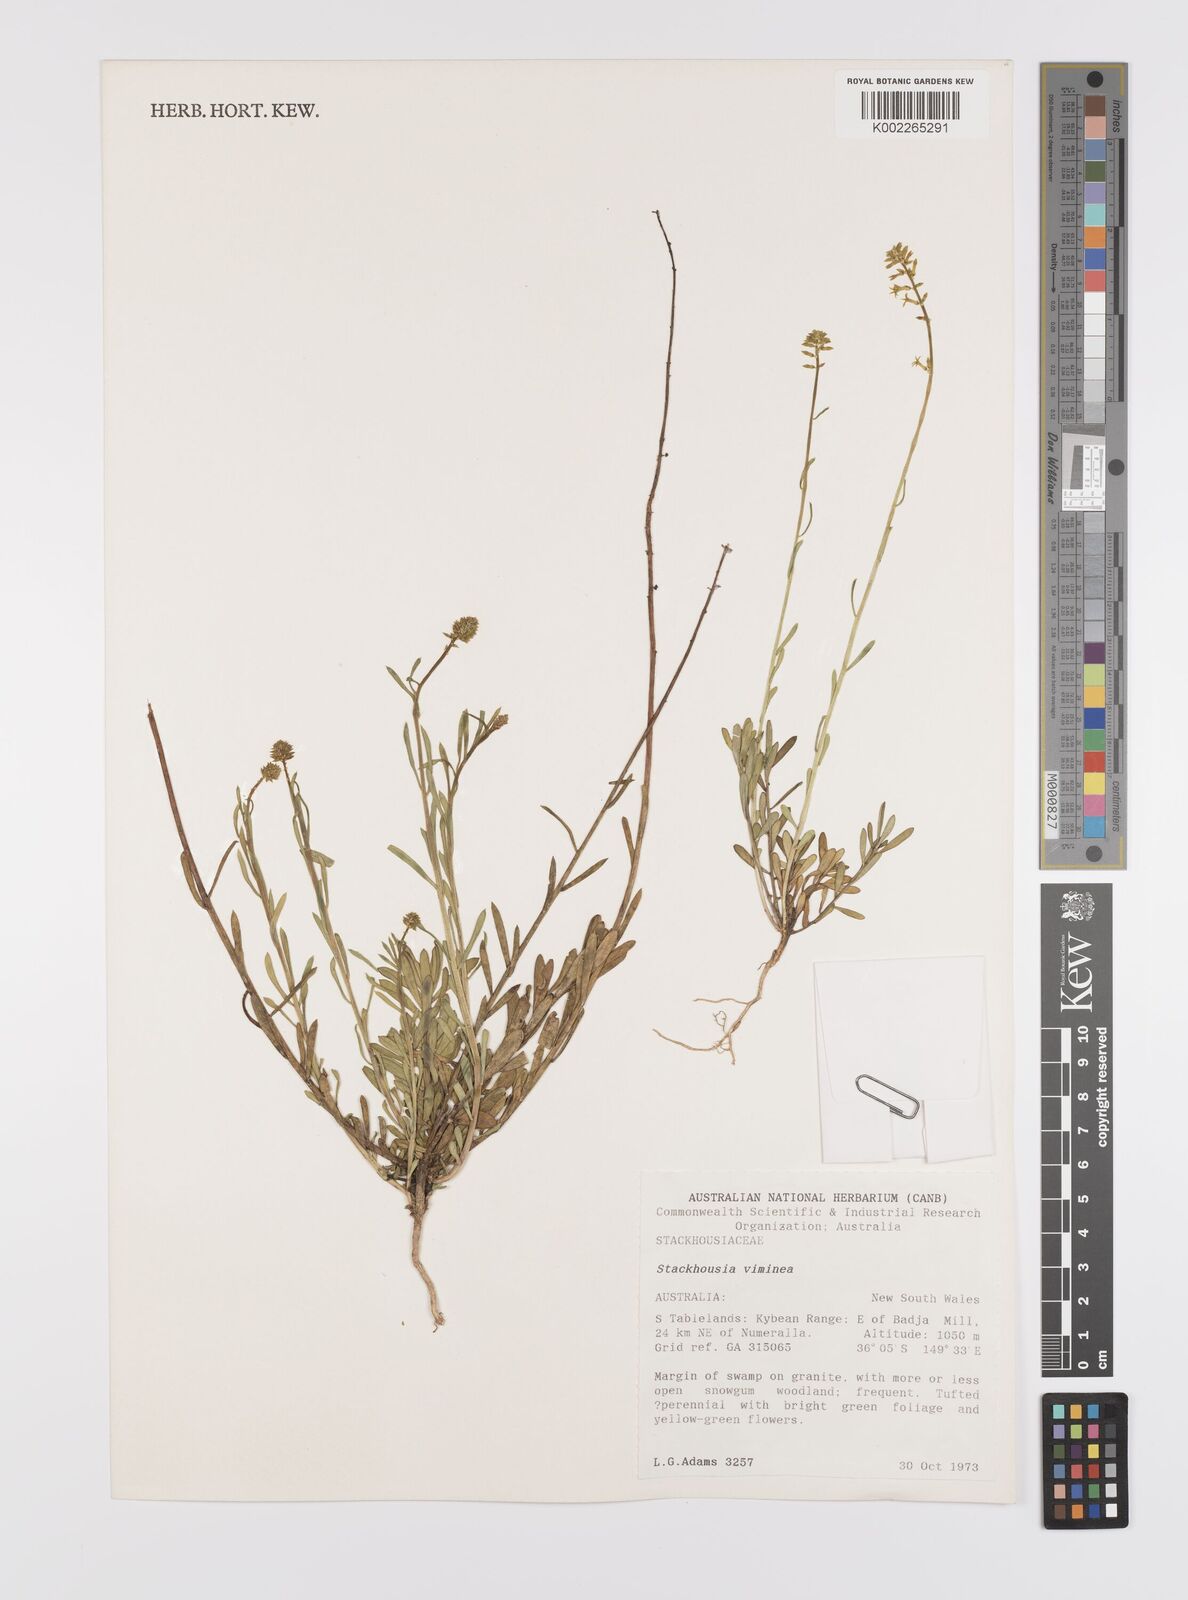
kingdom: Plantae
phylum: Tracheophyta
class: Magnoliopsida
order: Celastrales
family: Celastraceae
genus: Stackhousia
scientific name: Stackhousia viminea
